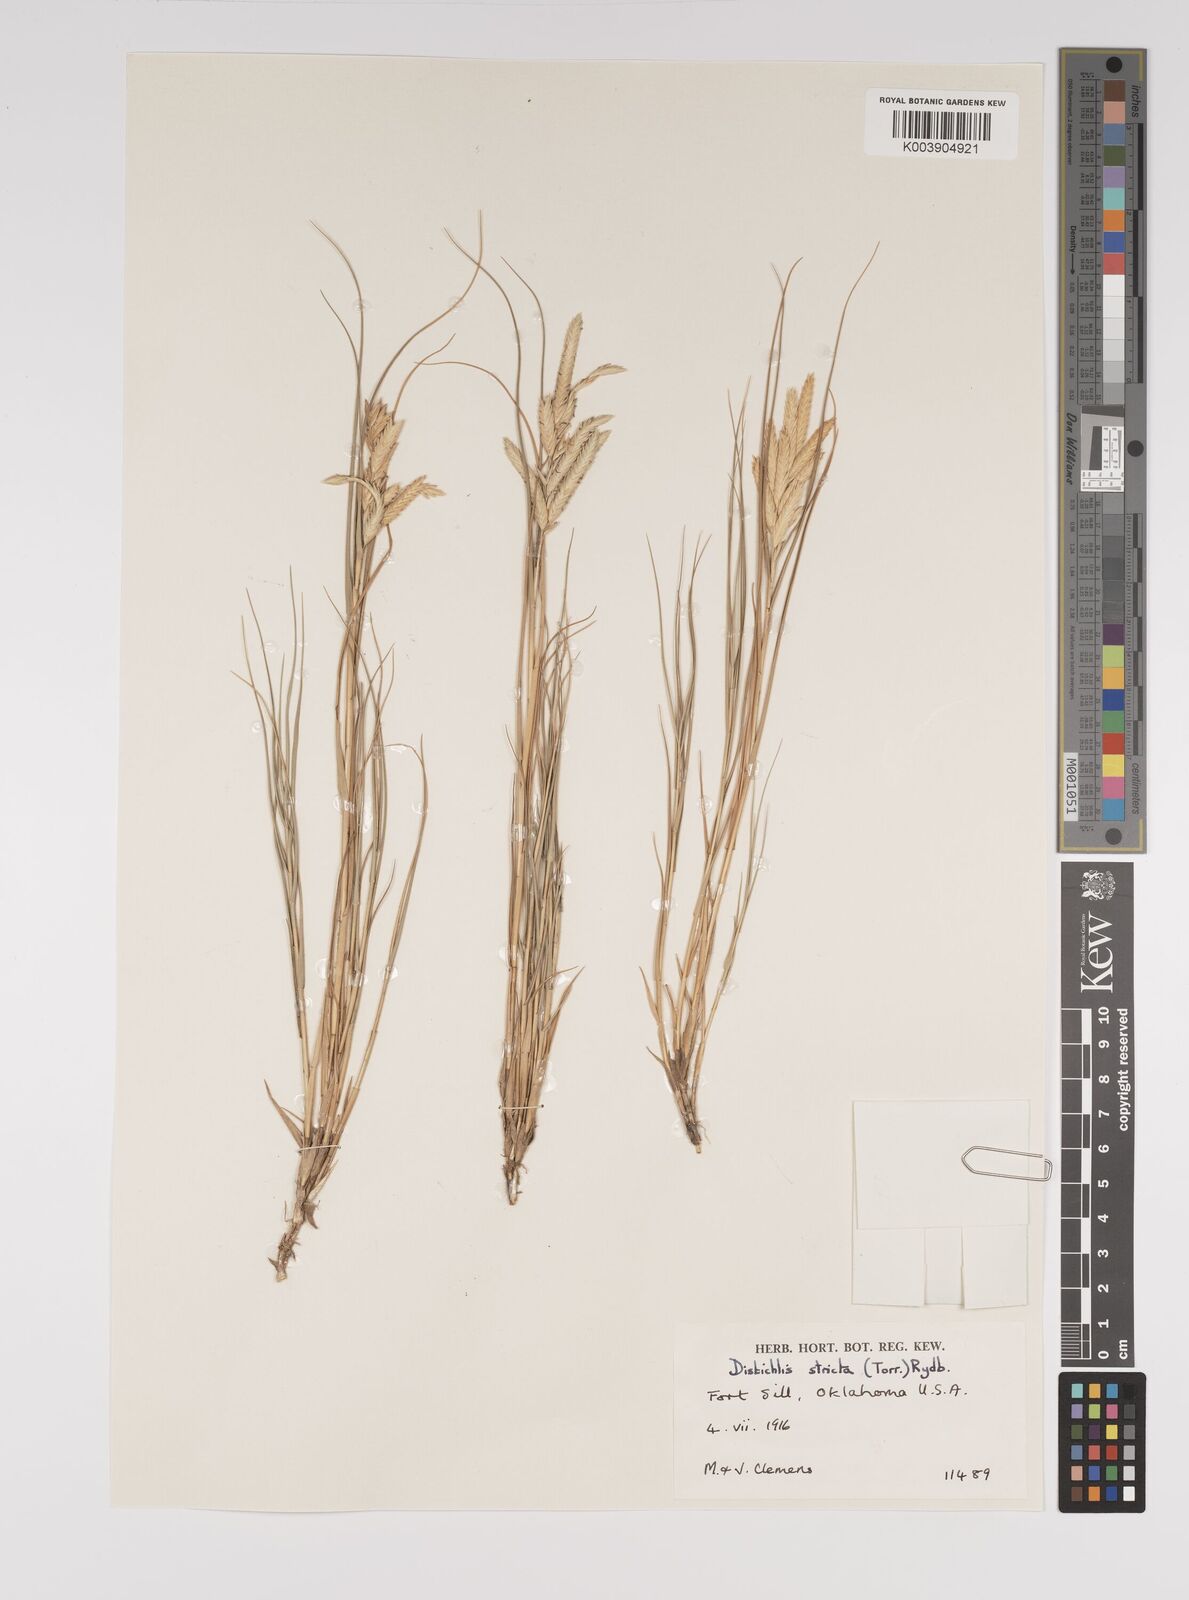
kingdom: Plantae
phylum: Tracheophyta
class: Liliopsida
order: Poales
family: Poaceae
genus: Distichlis
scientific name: Distichlis spicata
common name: Saltgrass
